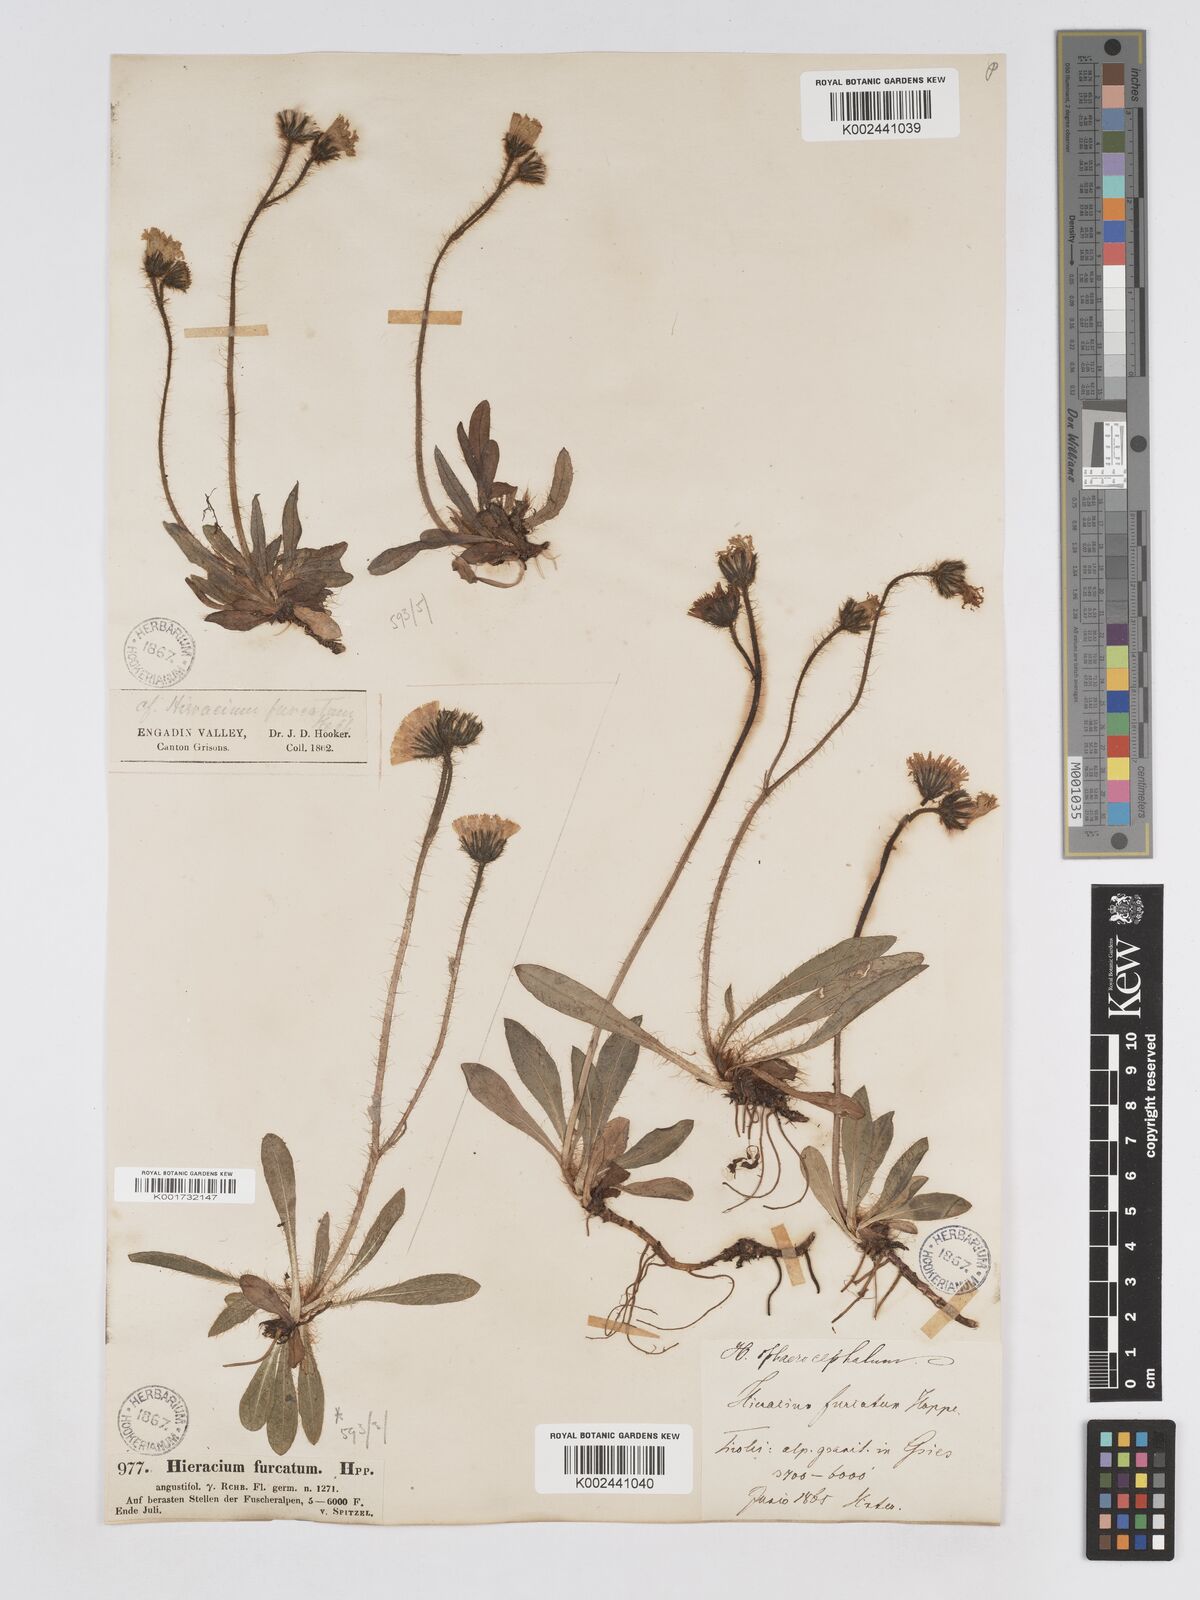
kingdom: Plantae
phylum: Tracheophyta
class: Magnoliopsida
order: Asterales
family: Asteraceae
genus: Pilosella
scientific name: Pilosella sphaerocephala
